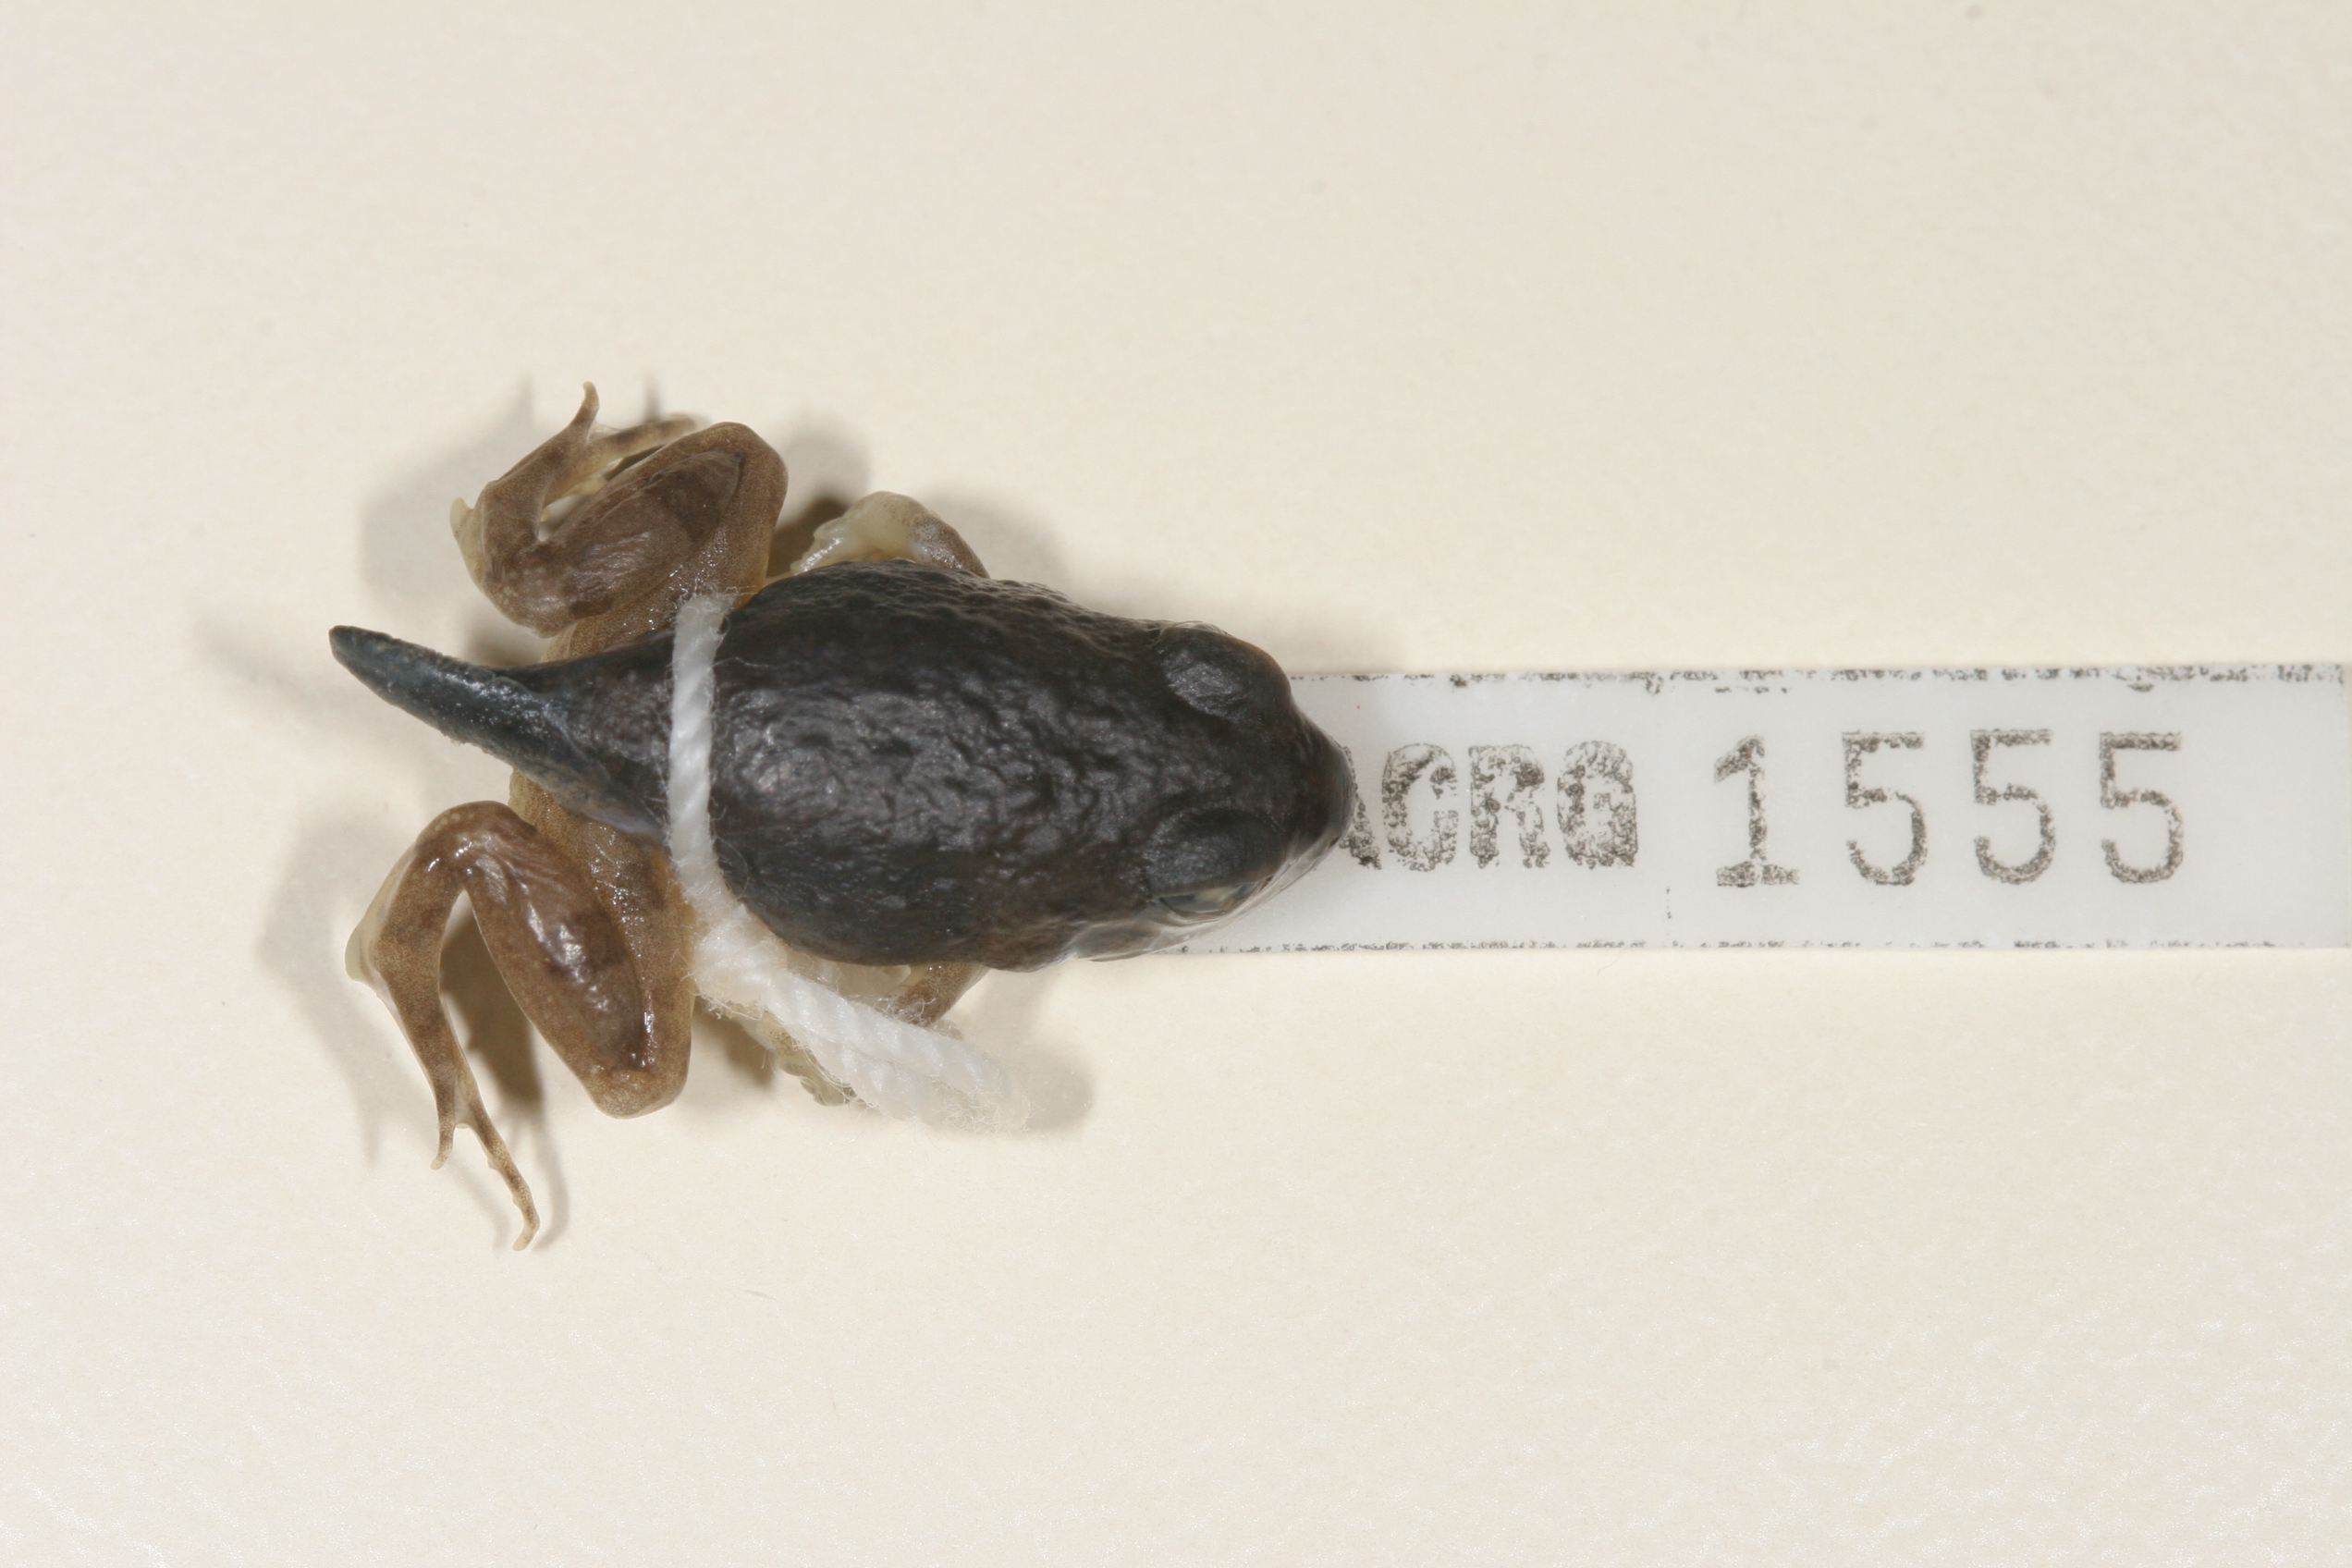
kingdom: Animalia
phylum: Chordata
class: Amphibia
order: Anura
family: Pyxicephalidae
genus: Tomopterna
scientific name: Tomopterna krugerensis
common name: Knocking sand frog
